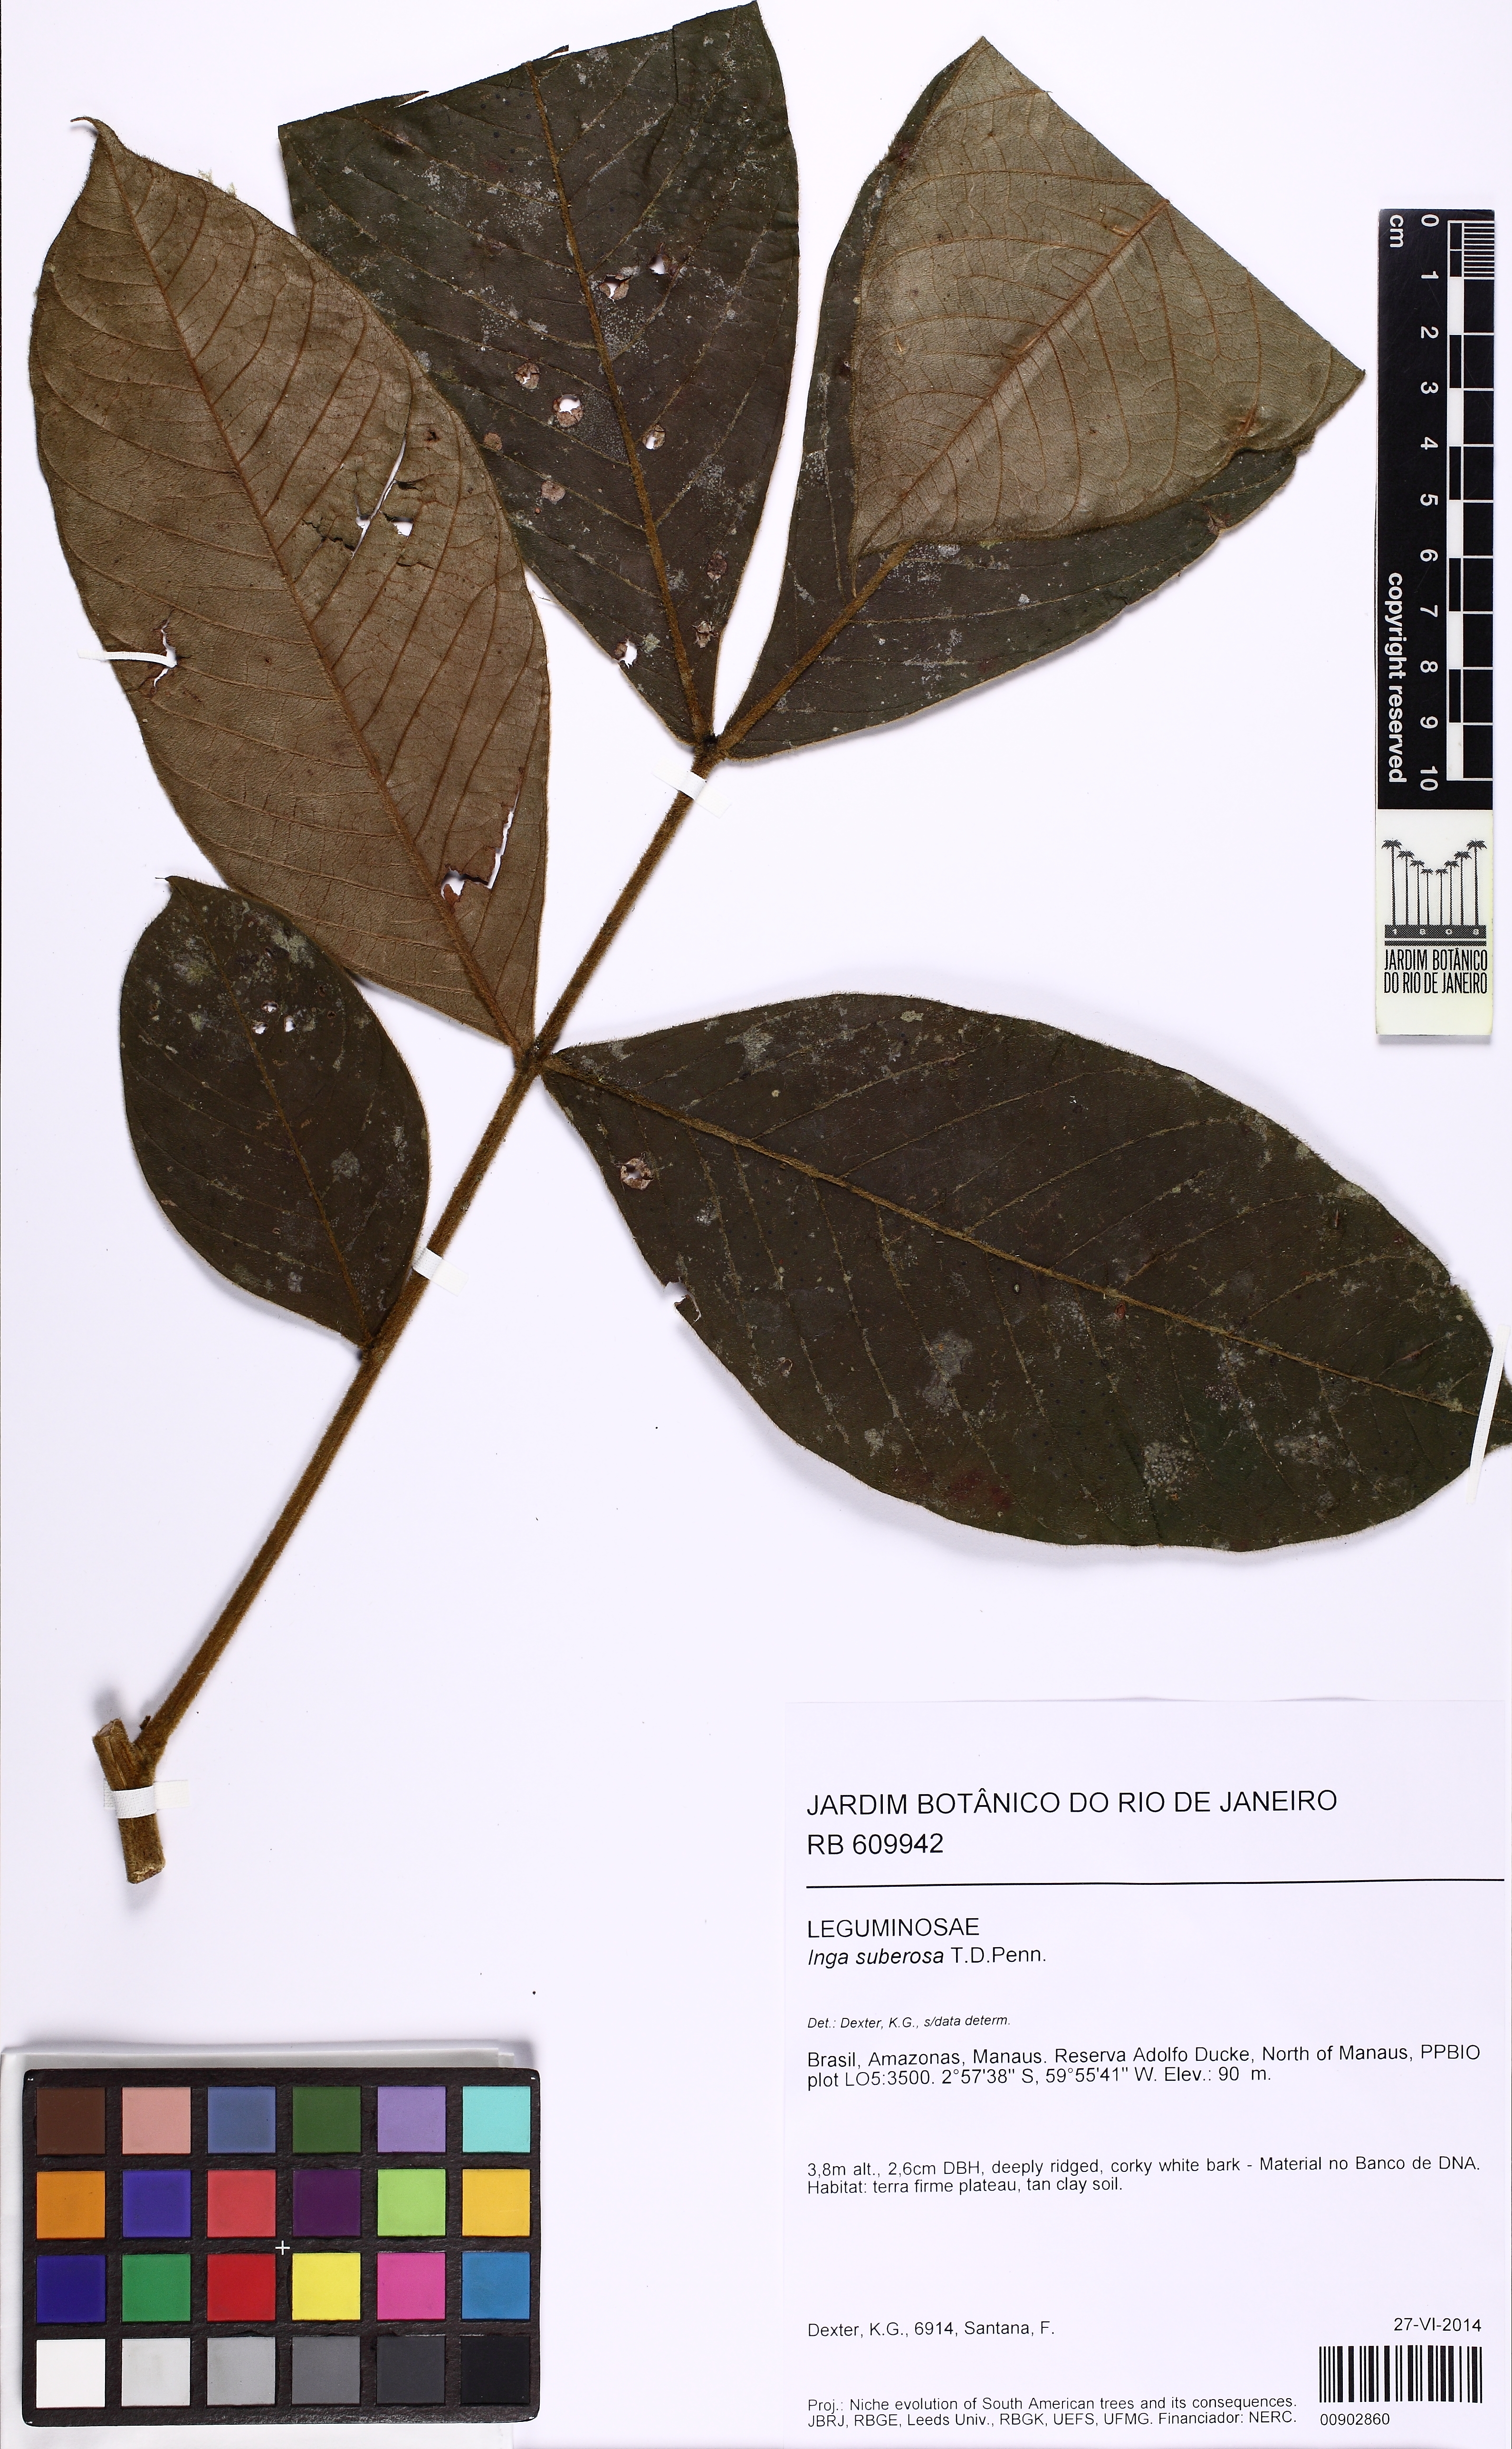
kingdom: Plantae
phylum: Tracheophyta
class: Magnoliopsida
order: Fabales
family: Fabaceae
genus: Inga
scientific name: Inga suberosa
